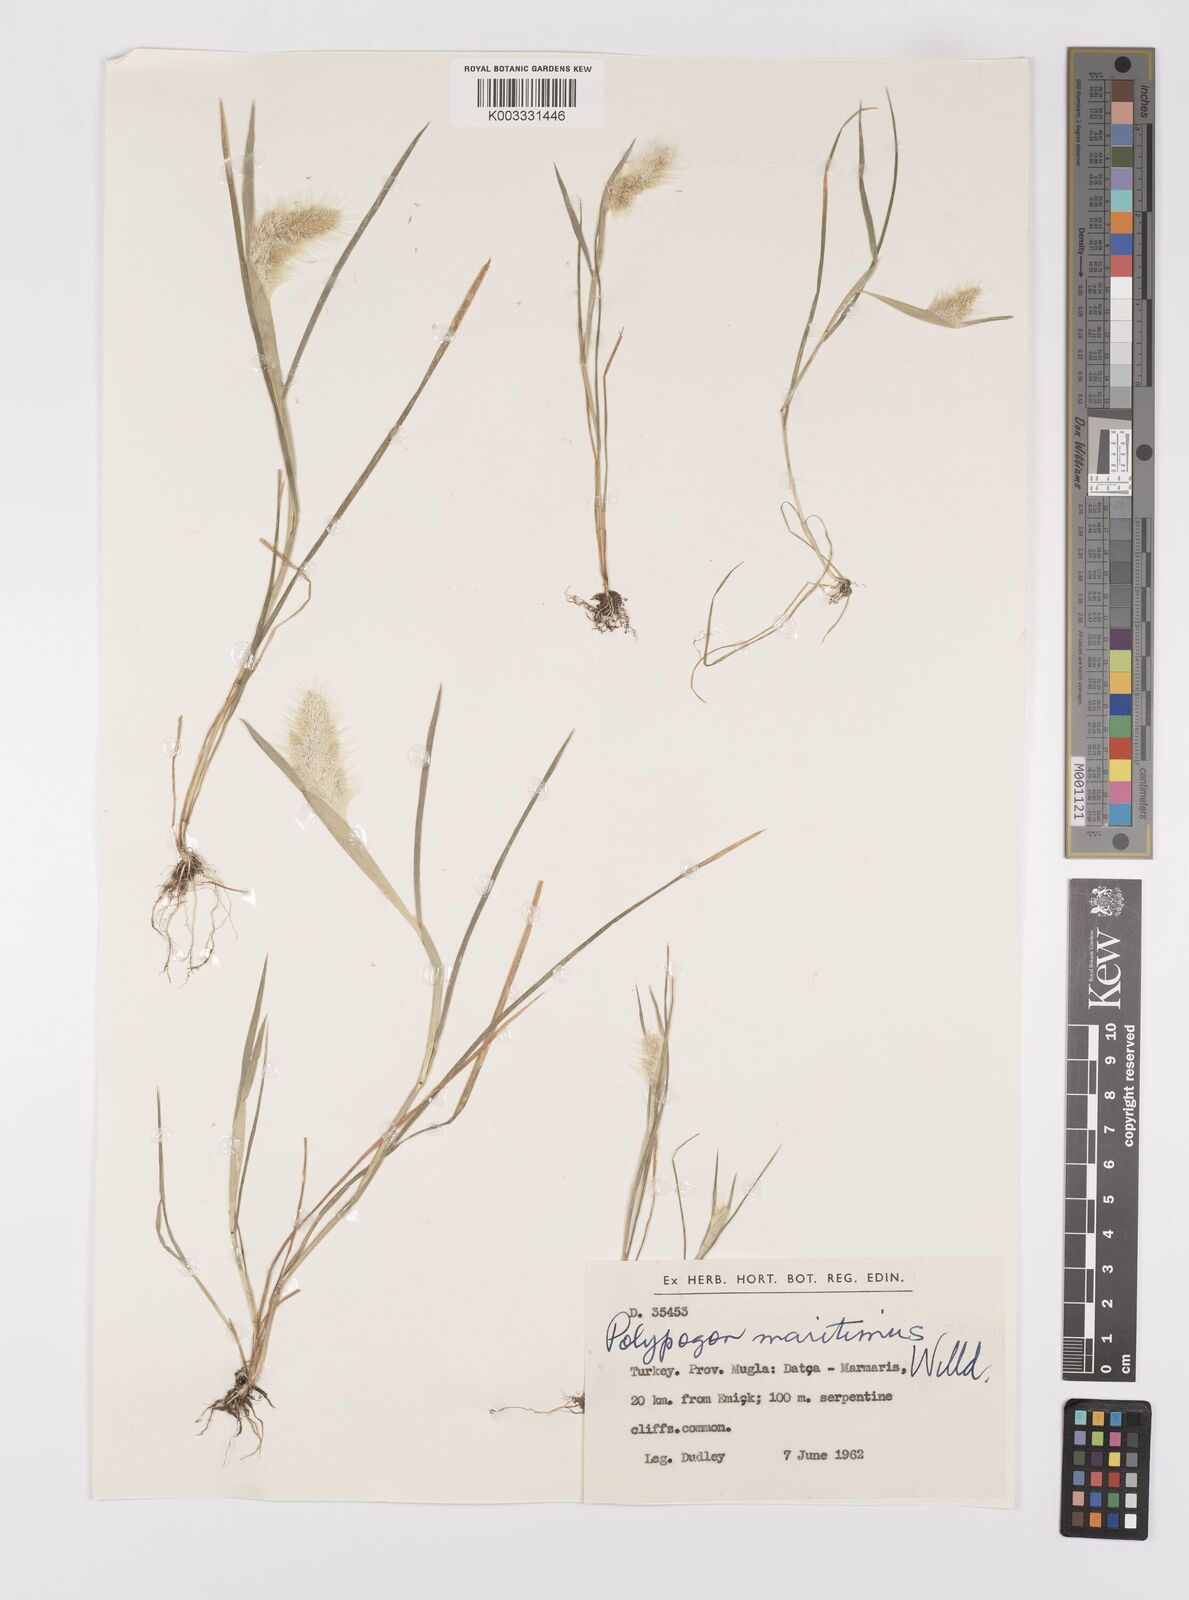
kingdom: Plantae
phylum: Tracheophyta
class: Liliopsida
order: Poales
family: Poaceae
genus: Polypogon
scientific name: Polypogon maritimus
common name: Mediterranean rabbitsfoot grass
